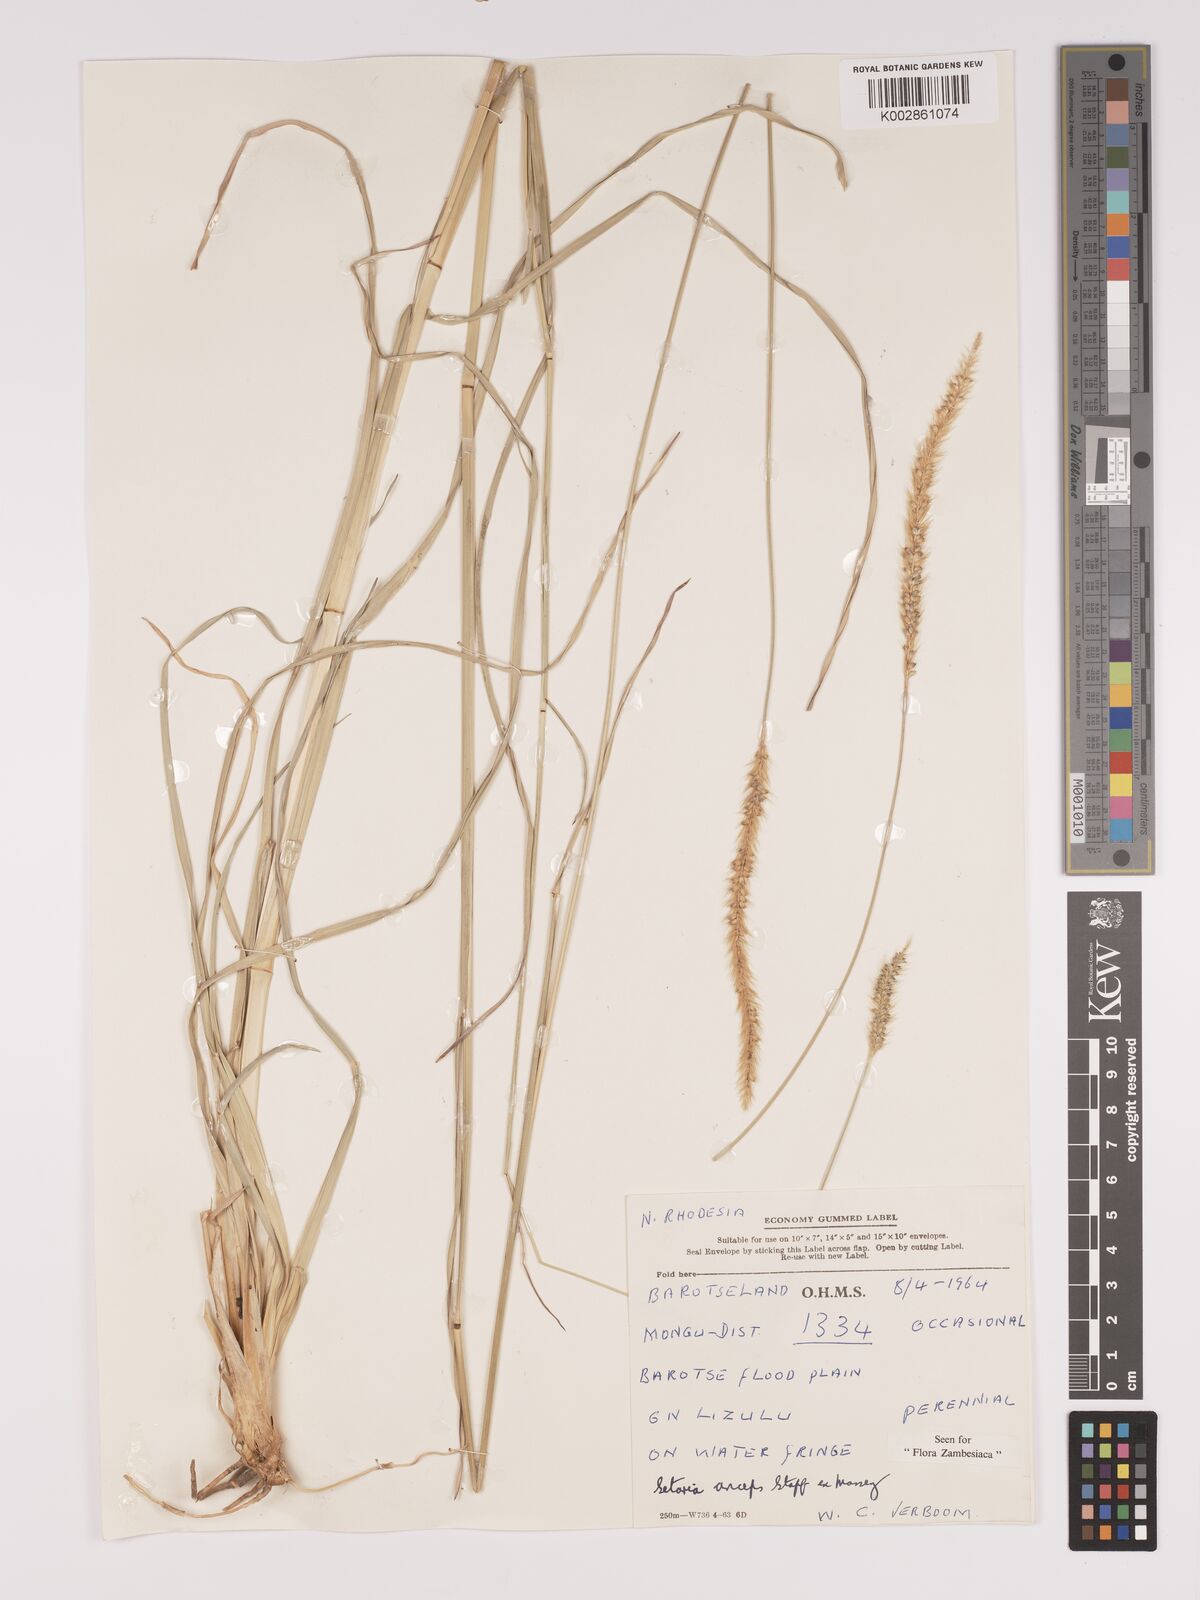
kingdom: Plantae
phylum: Tracheophyta
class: Liliopsida
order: Poales
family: Poaceae
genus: Setaria
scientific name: Setaria sphacelata
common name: African bristlegrass
